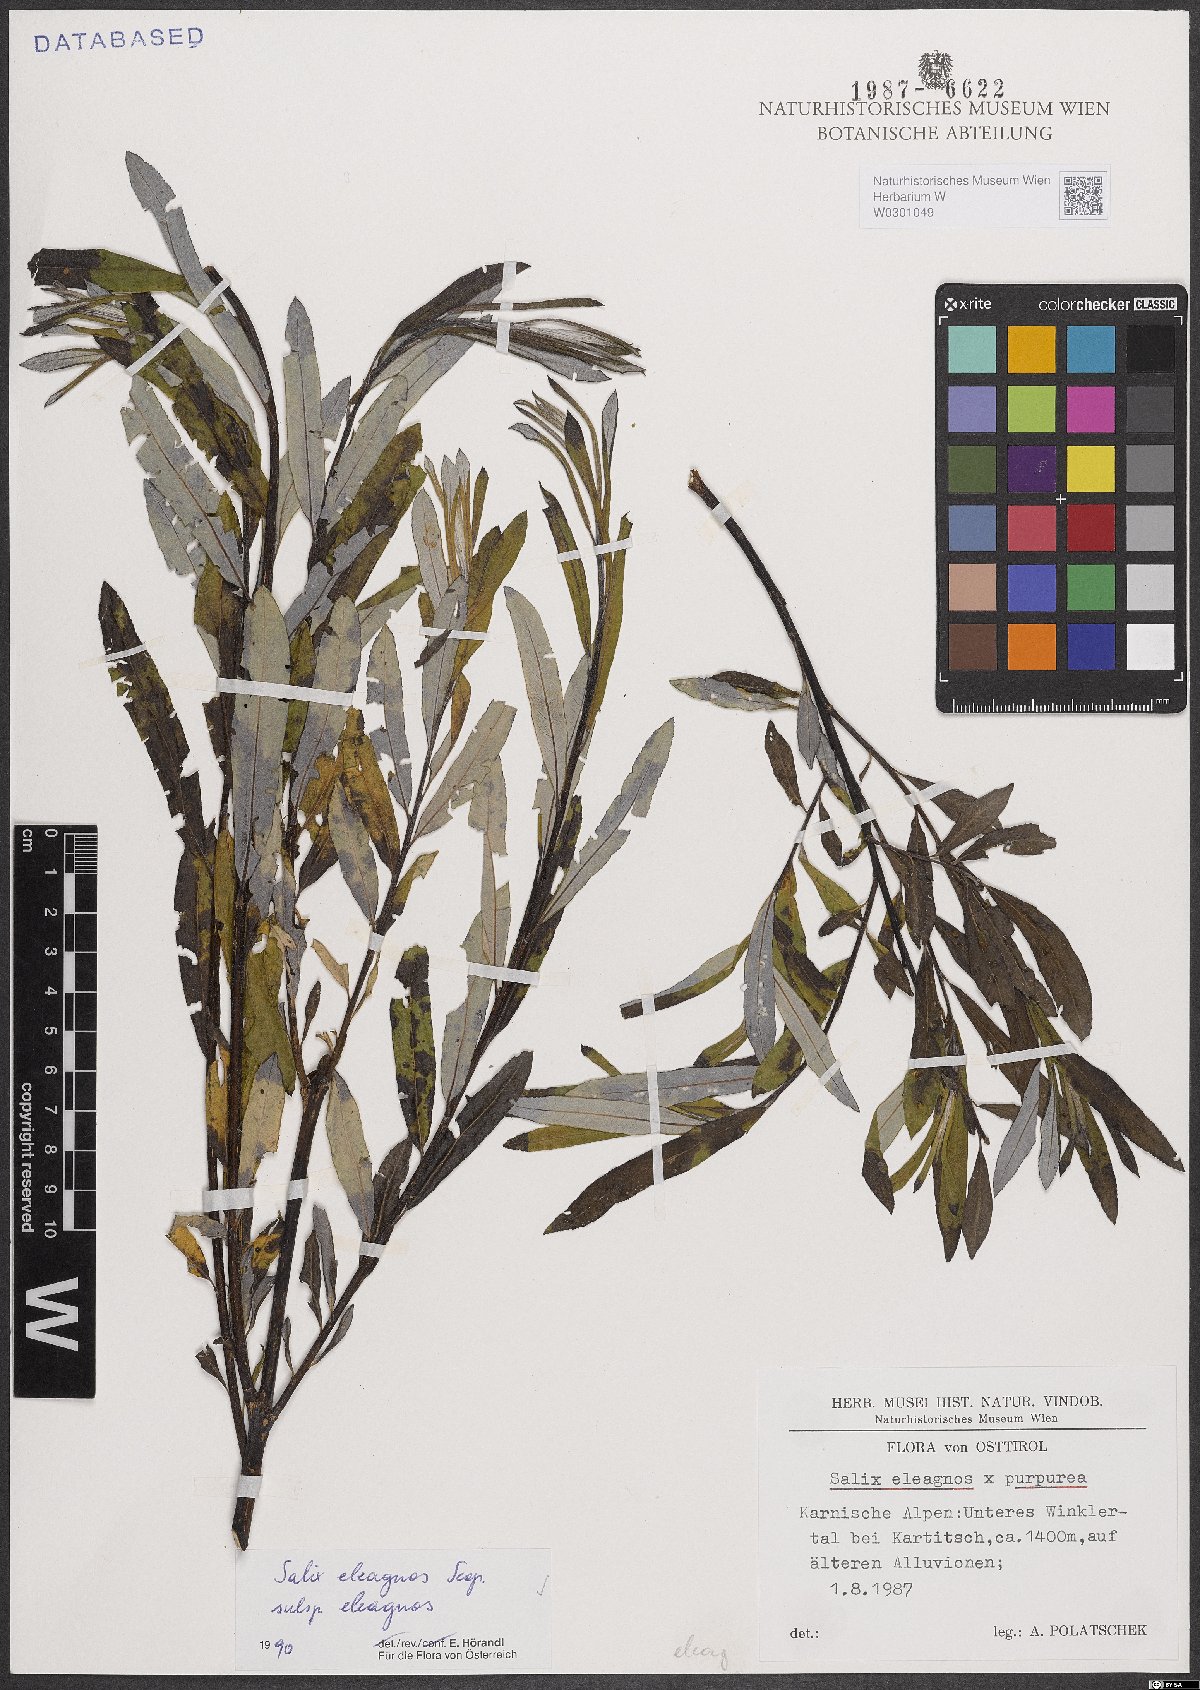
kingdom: Plantae
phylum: Tracheophyta
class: Magnoliopsida
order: Malpighiales
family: Salicaceae
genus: Salix
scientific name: Salix eleagnos
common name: Elaeagnus willow
